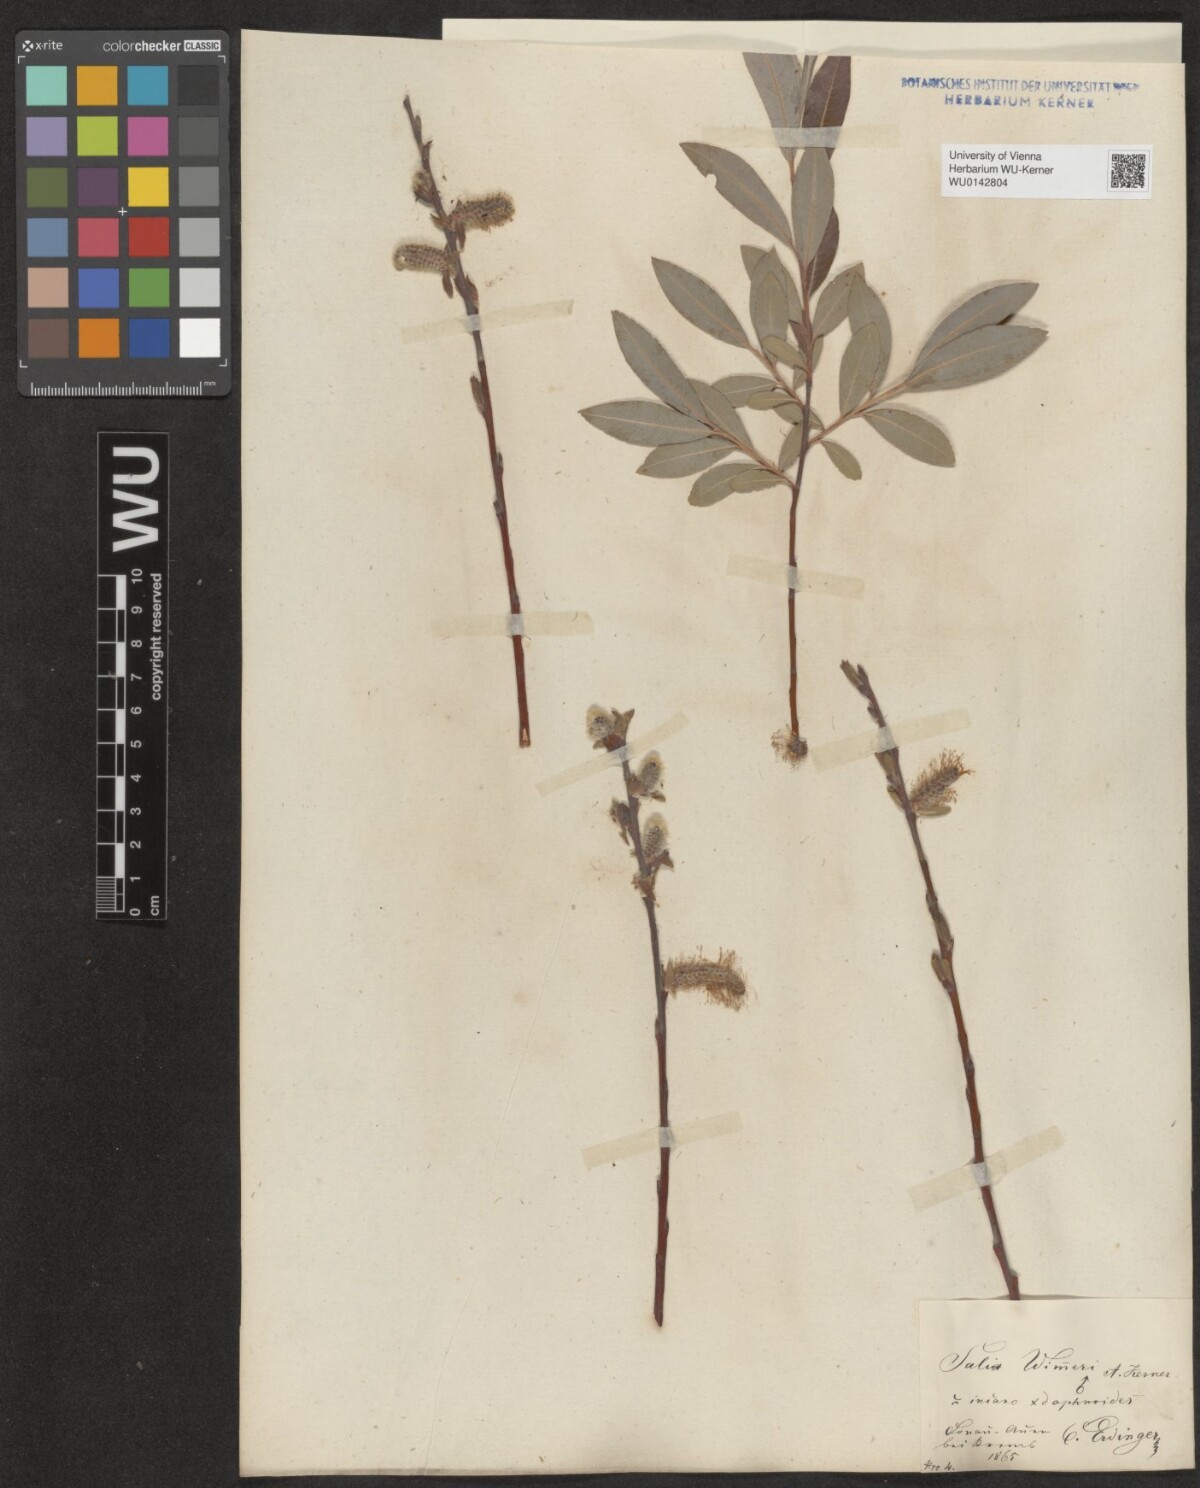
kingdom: Plantae
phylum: Tracheophyta
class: Magnoliopsida
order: Malpighiales
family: Salicaceae
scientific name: Salicaceae
